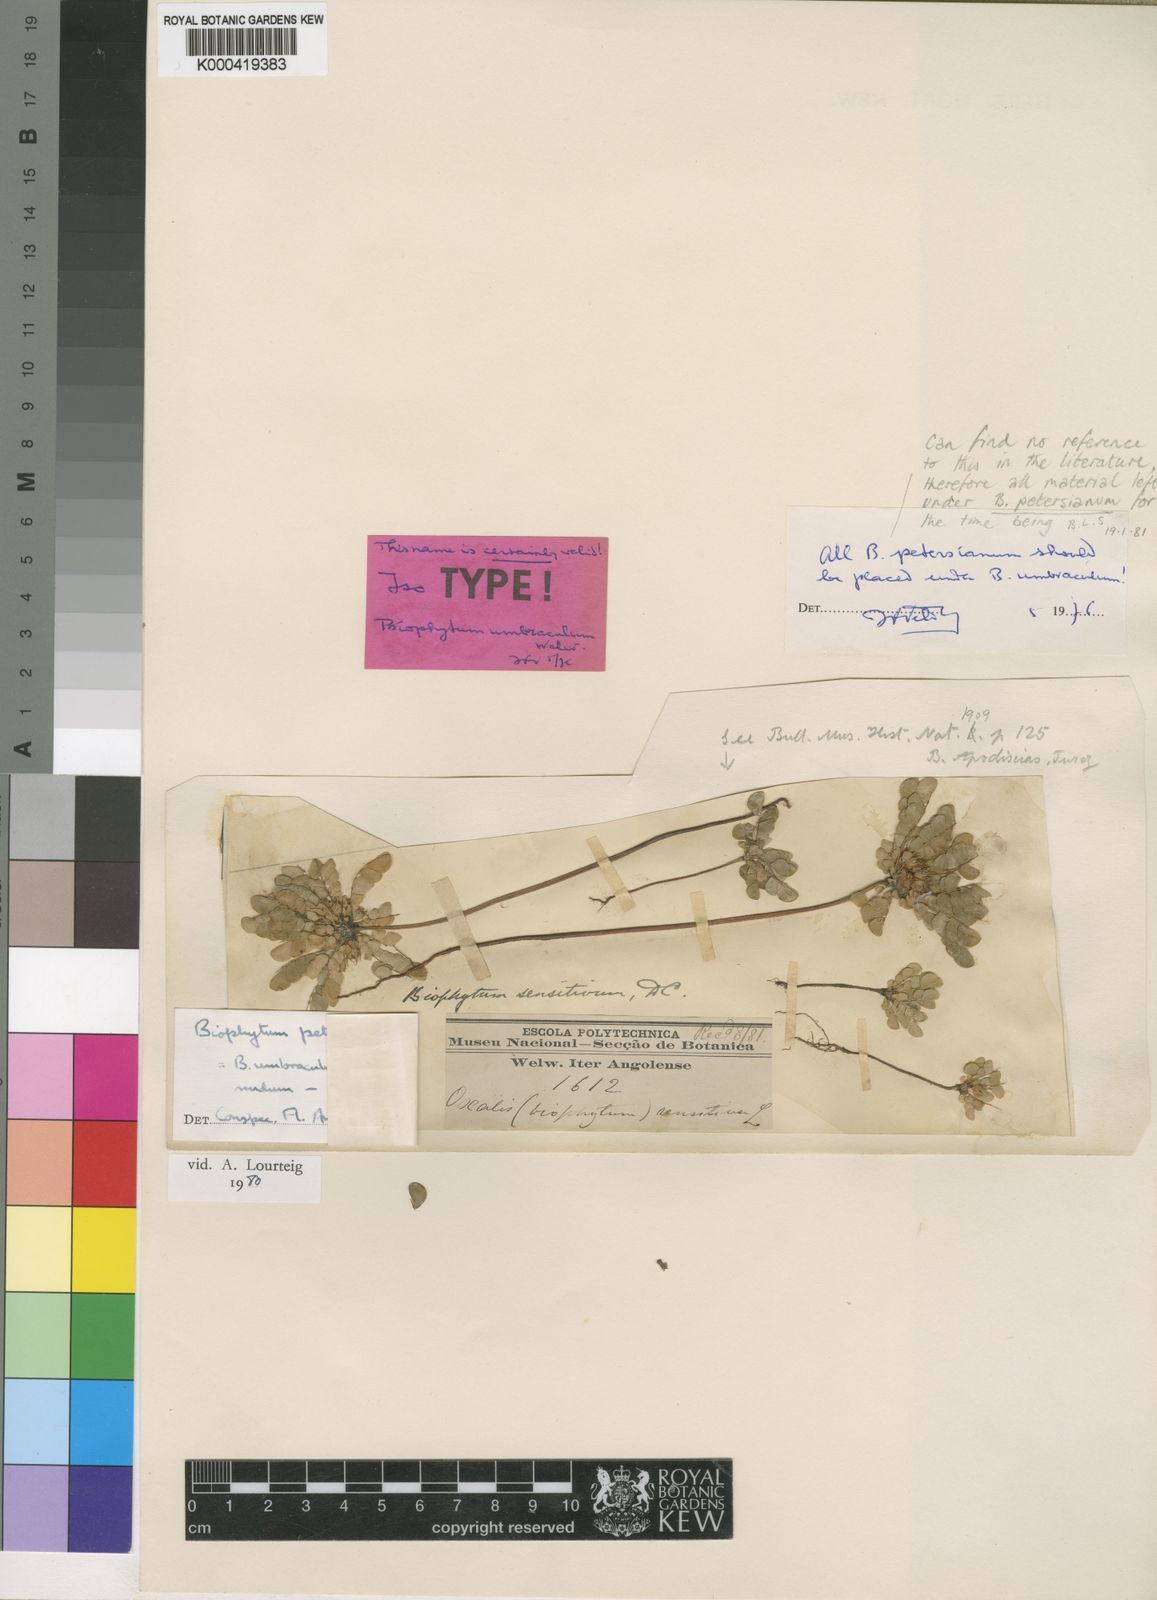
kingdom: Plantae
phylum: Tracheophyta
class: Magnoliopsida
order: Oxalidales
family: Oxalidaceae
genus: Biophytum
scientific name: Biophytum umbraculum
